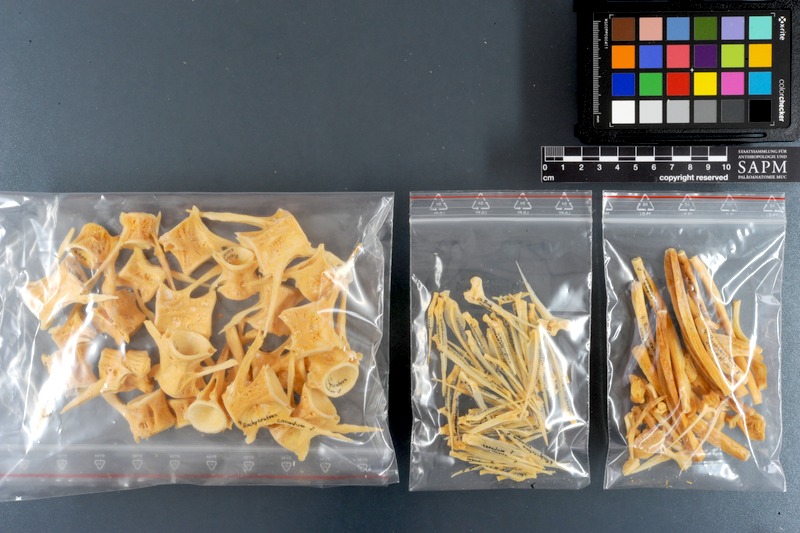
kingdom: Animalia
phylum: Chordata
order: Perciformes
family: Rachycentridae
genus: Rachycentron
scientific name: Rachycentron canadum
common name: Cobia
